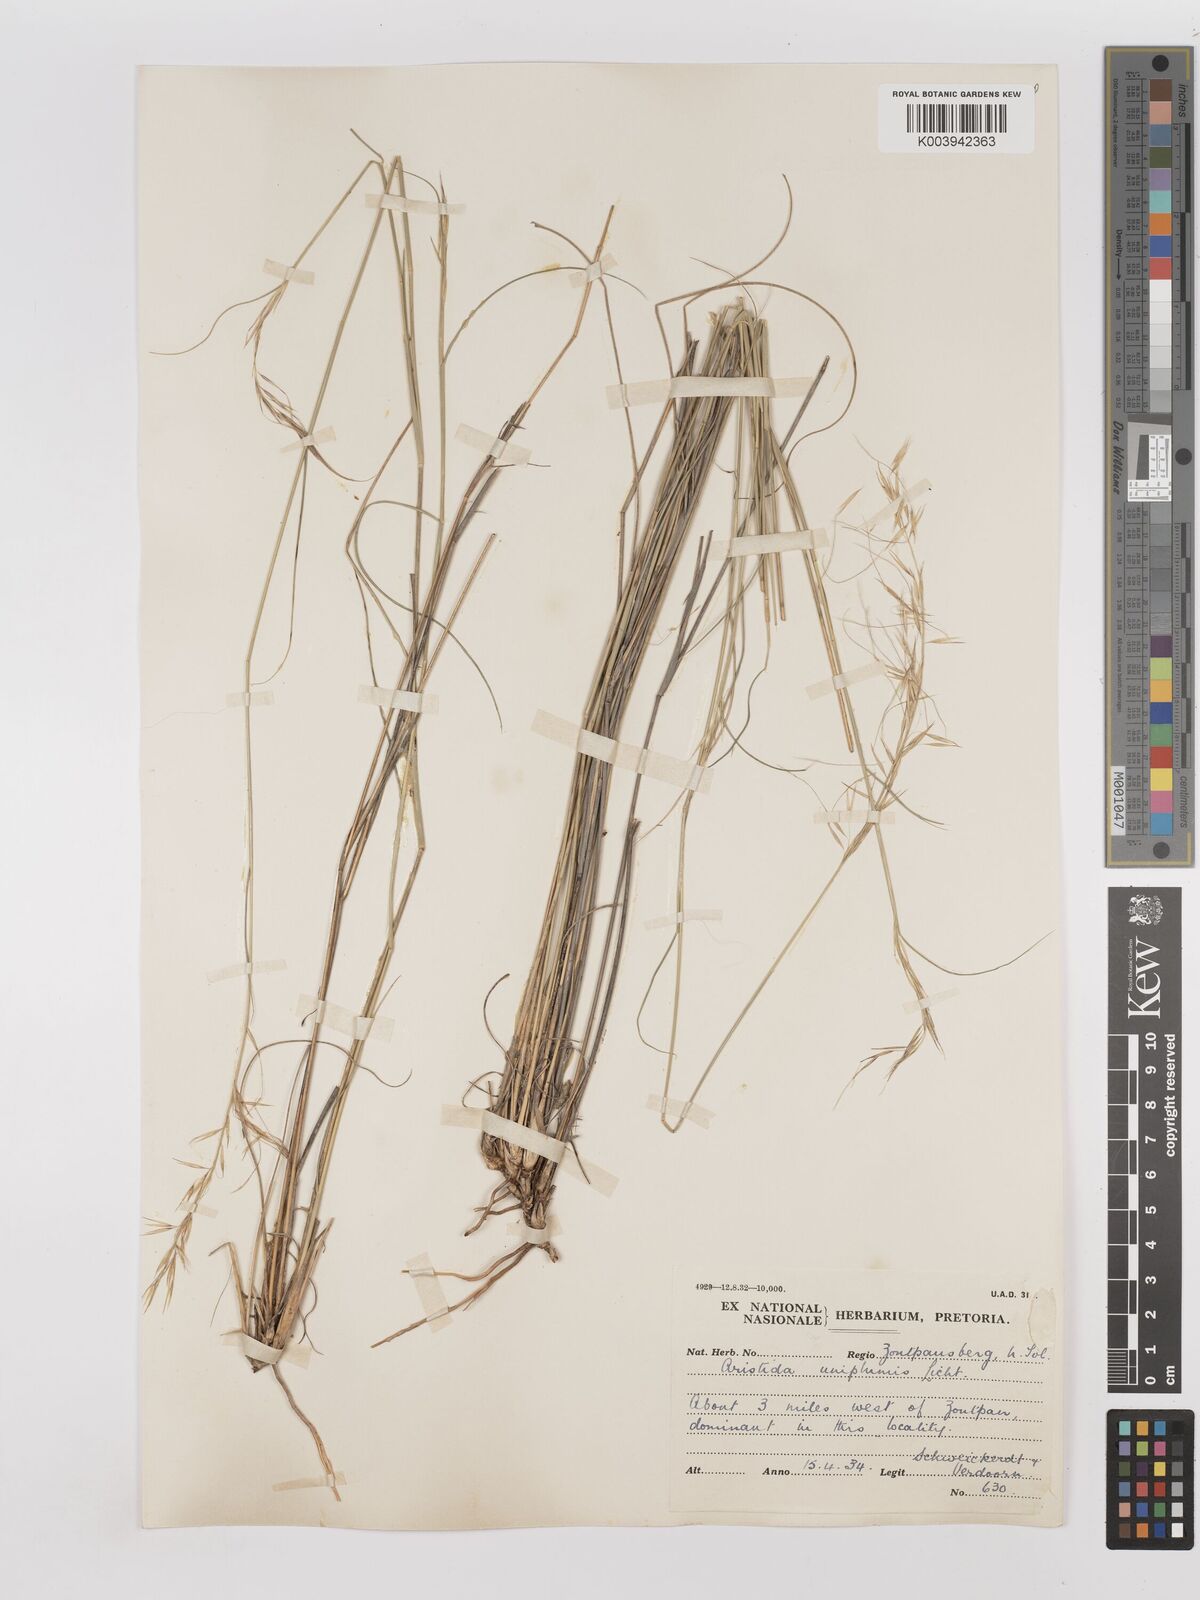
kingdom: Plantae
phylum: Tracheophyta
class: Liliopsida
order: Poales
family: Poaceae
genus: Stipagrostis
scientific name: Stipagrostis uniplumis
